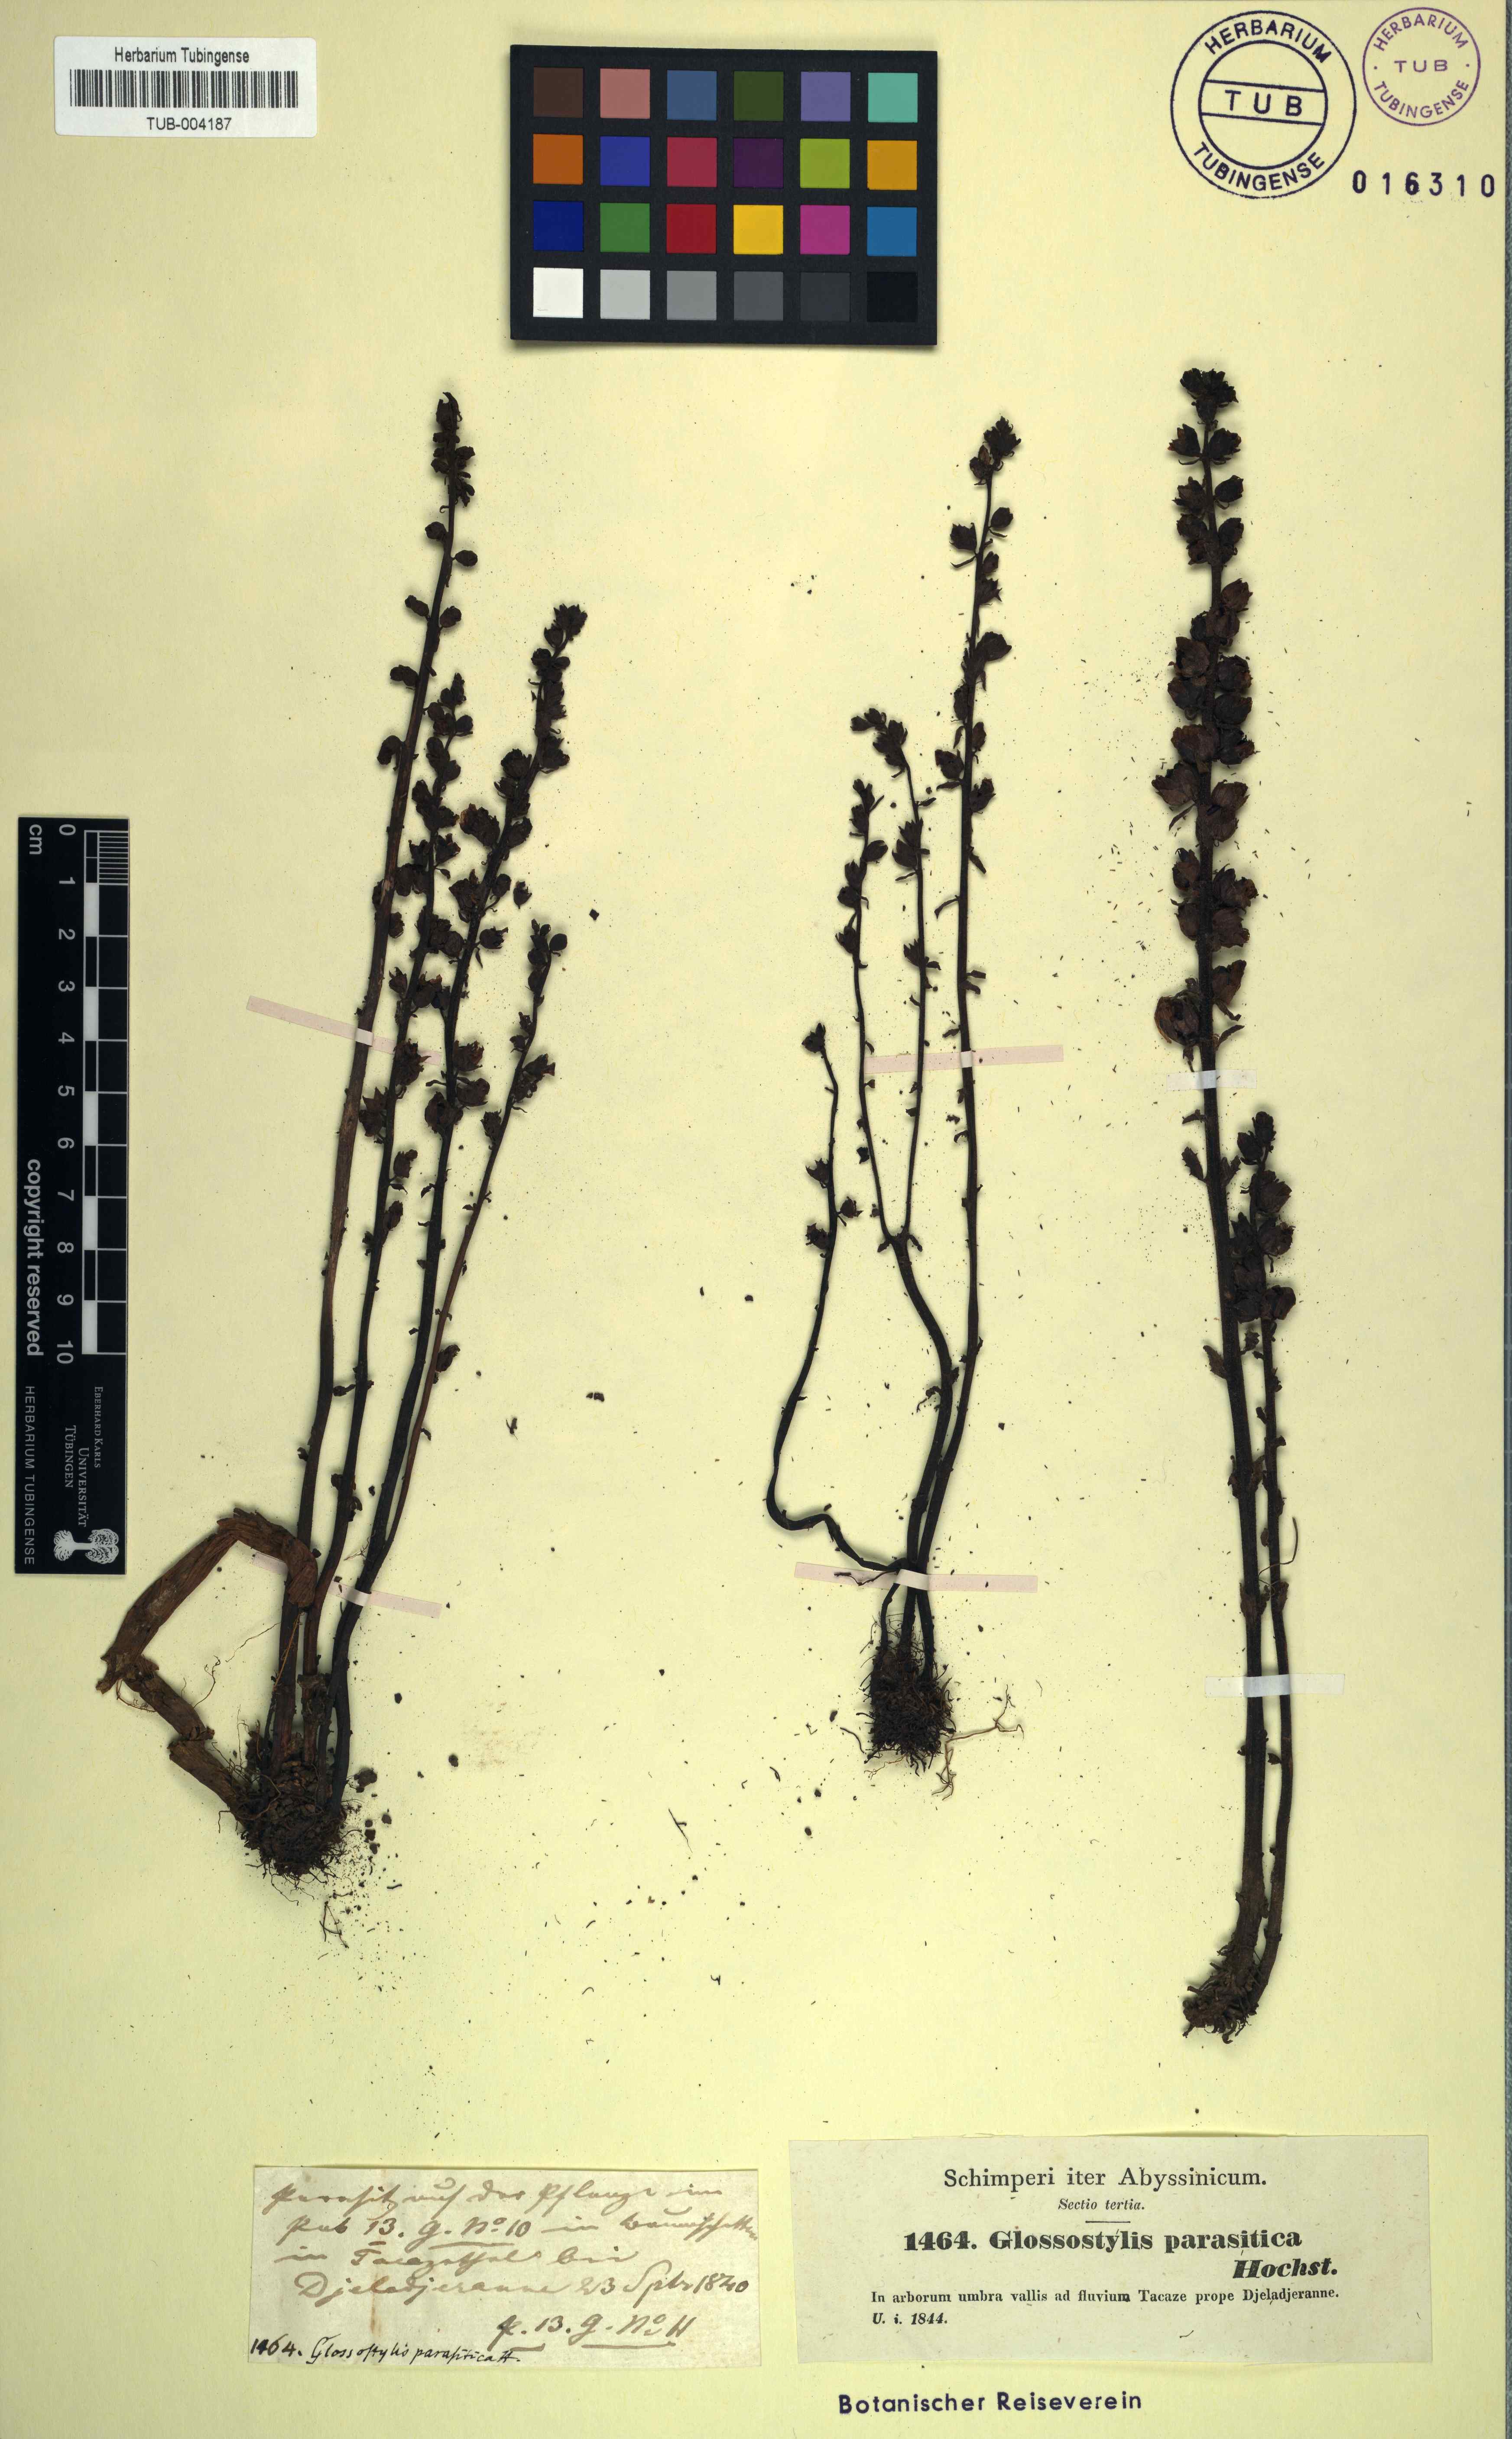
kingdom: Plantae
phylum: Tracheophyta
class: Magnoliopsida
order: Lamiales
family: Orobanchaceae
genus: Alectra
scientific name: Alectra parasitica
